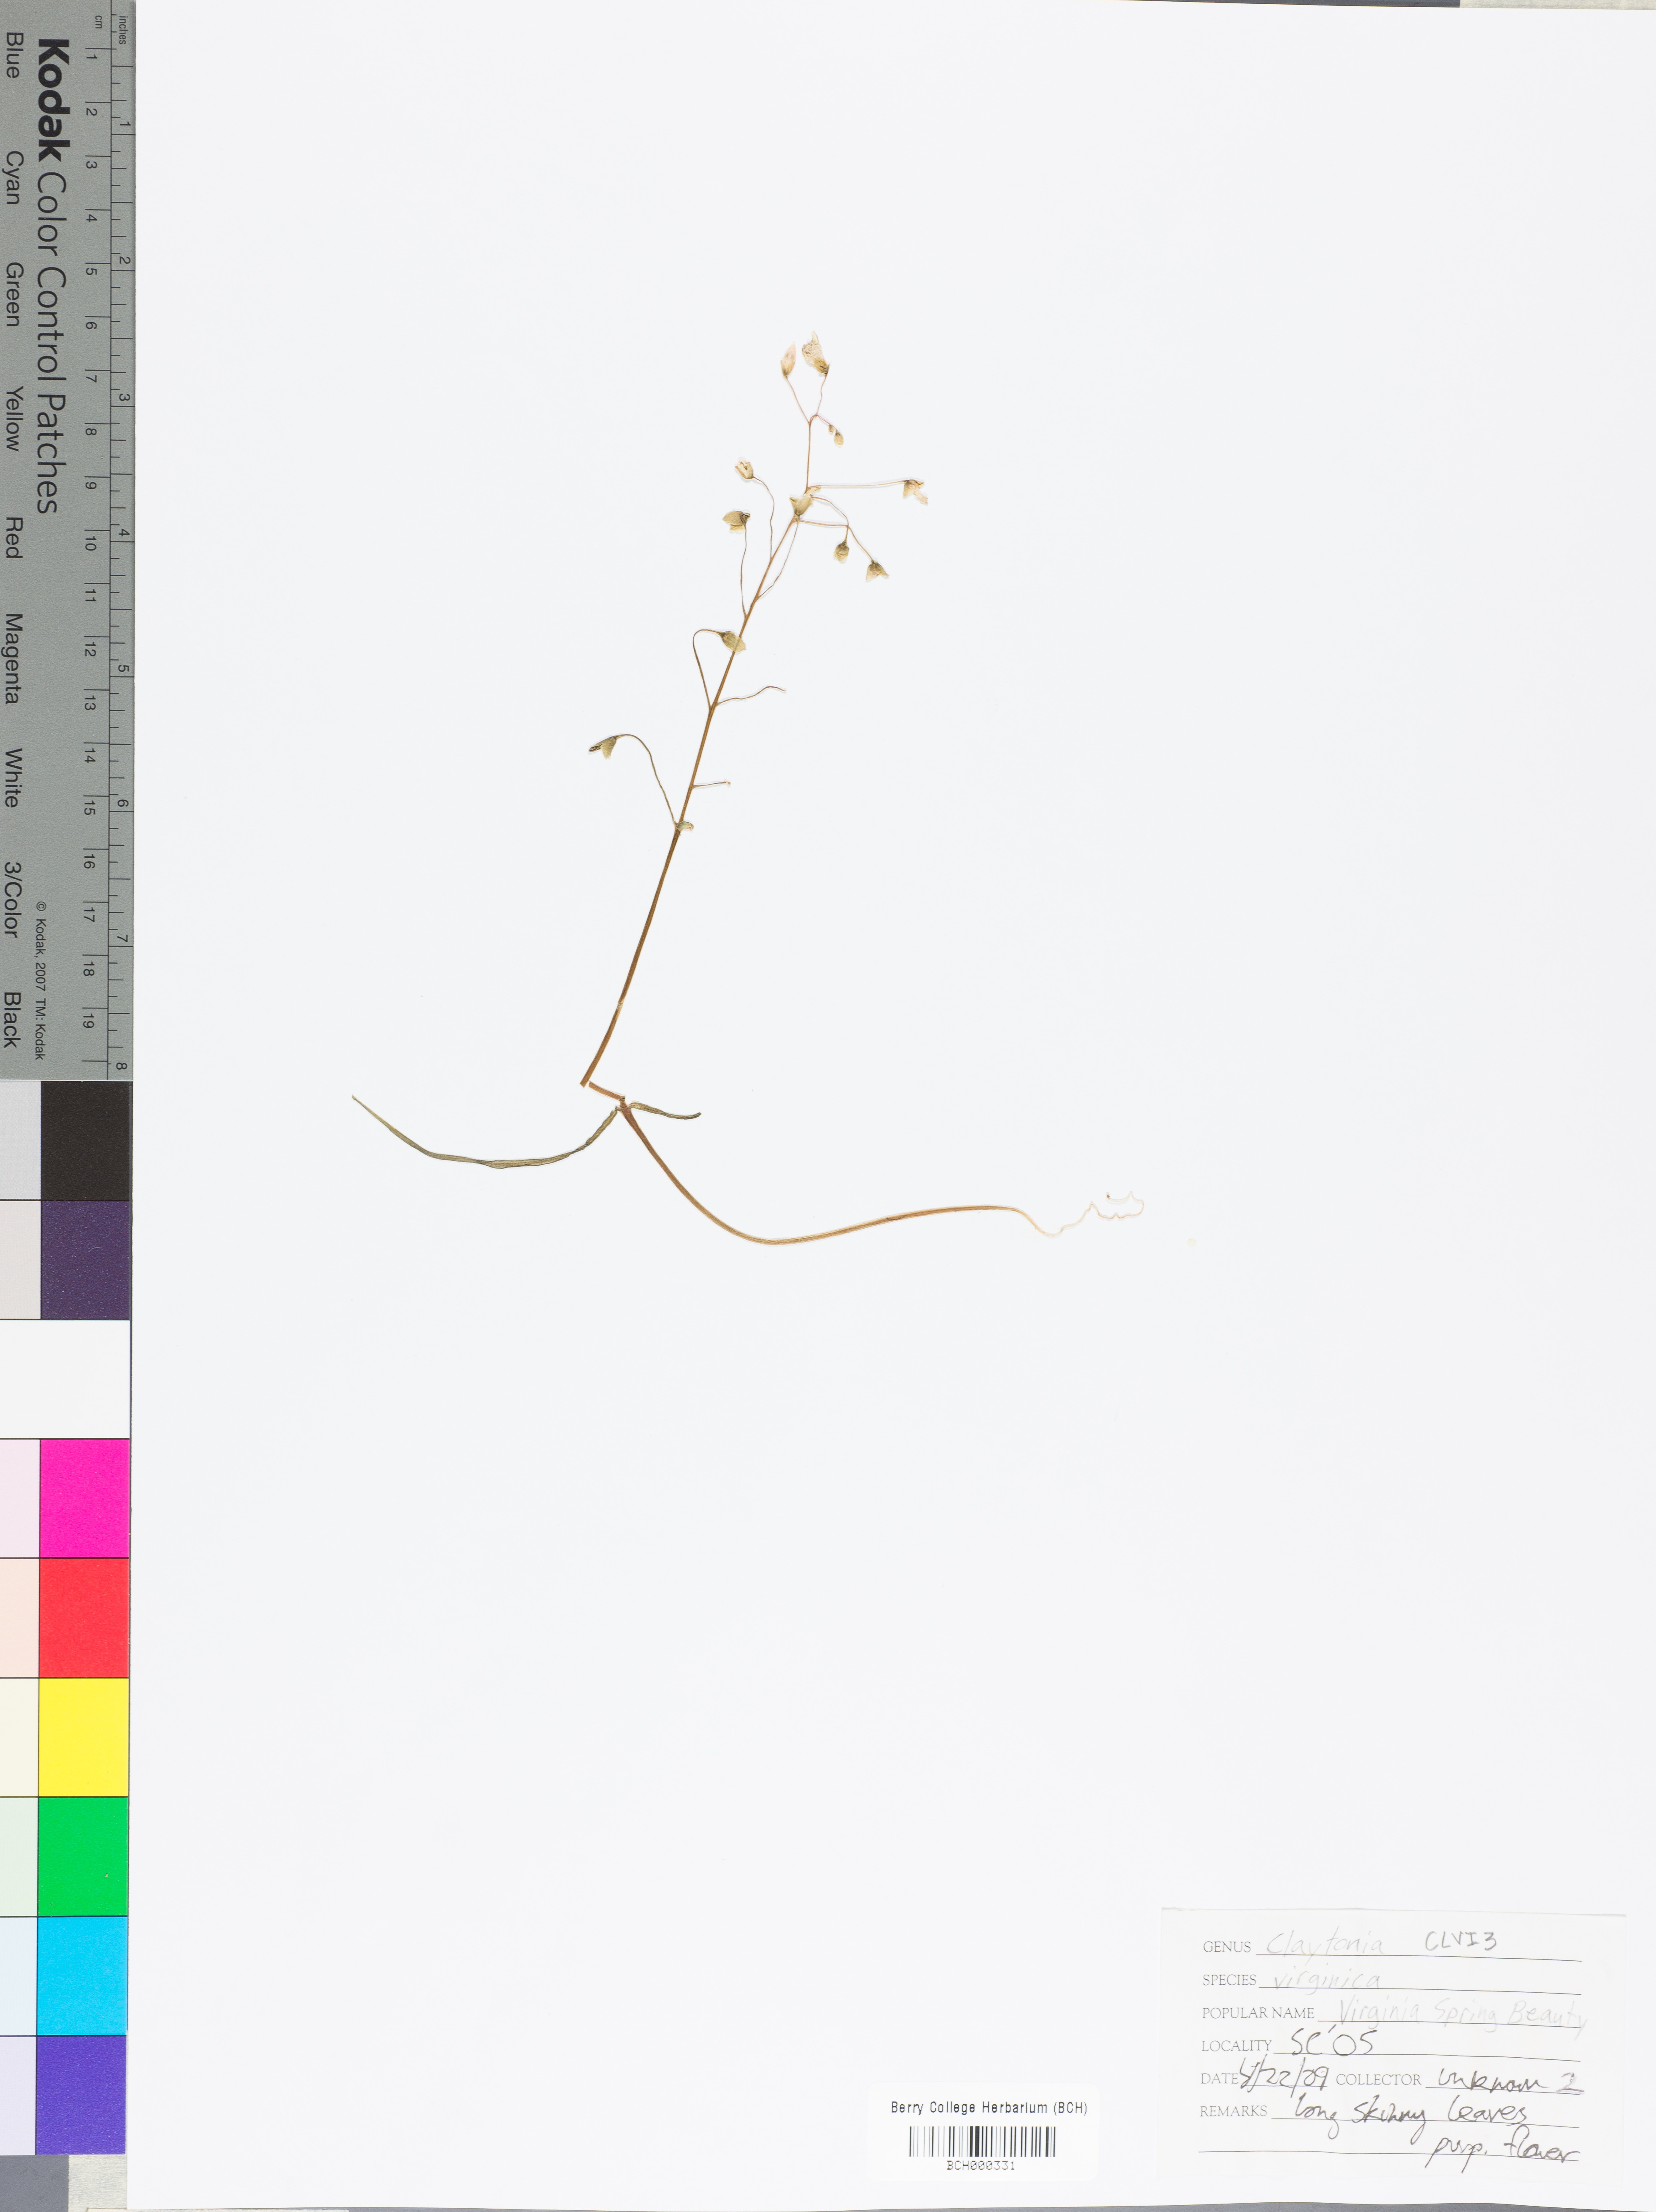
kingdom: Plantae
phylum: Tracheophyta
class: Magnoliopsida
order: Caryophyllales
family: Montiaceae
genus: Claytonia
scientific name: Claytonia virginica
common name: Virginia springbeauty
